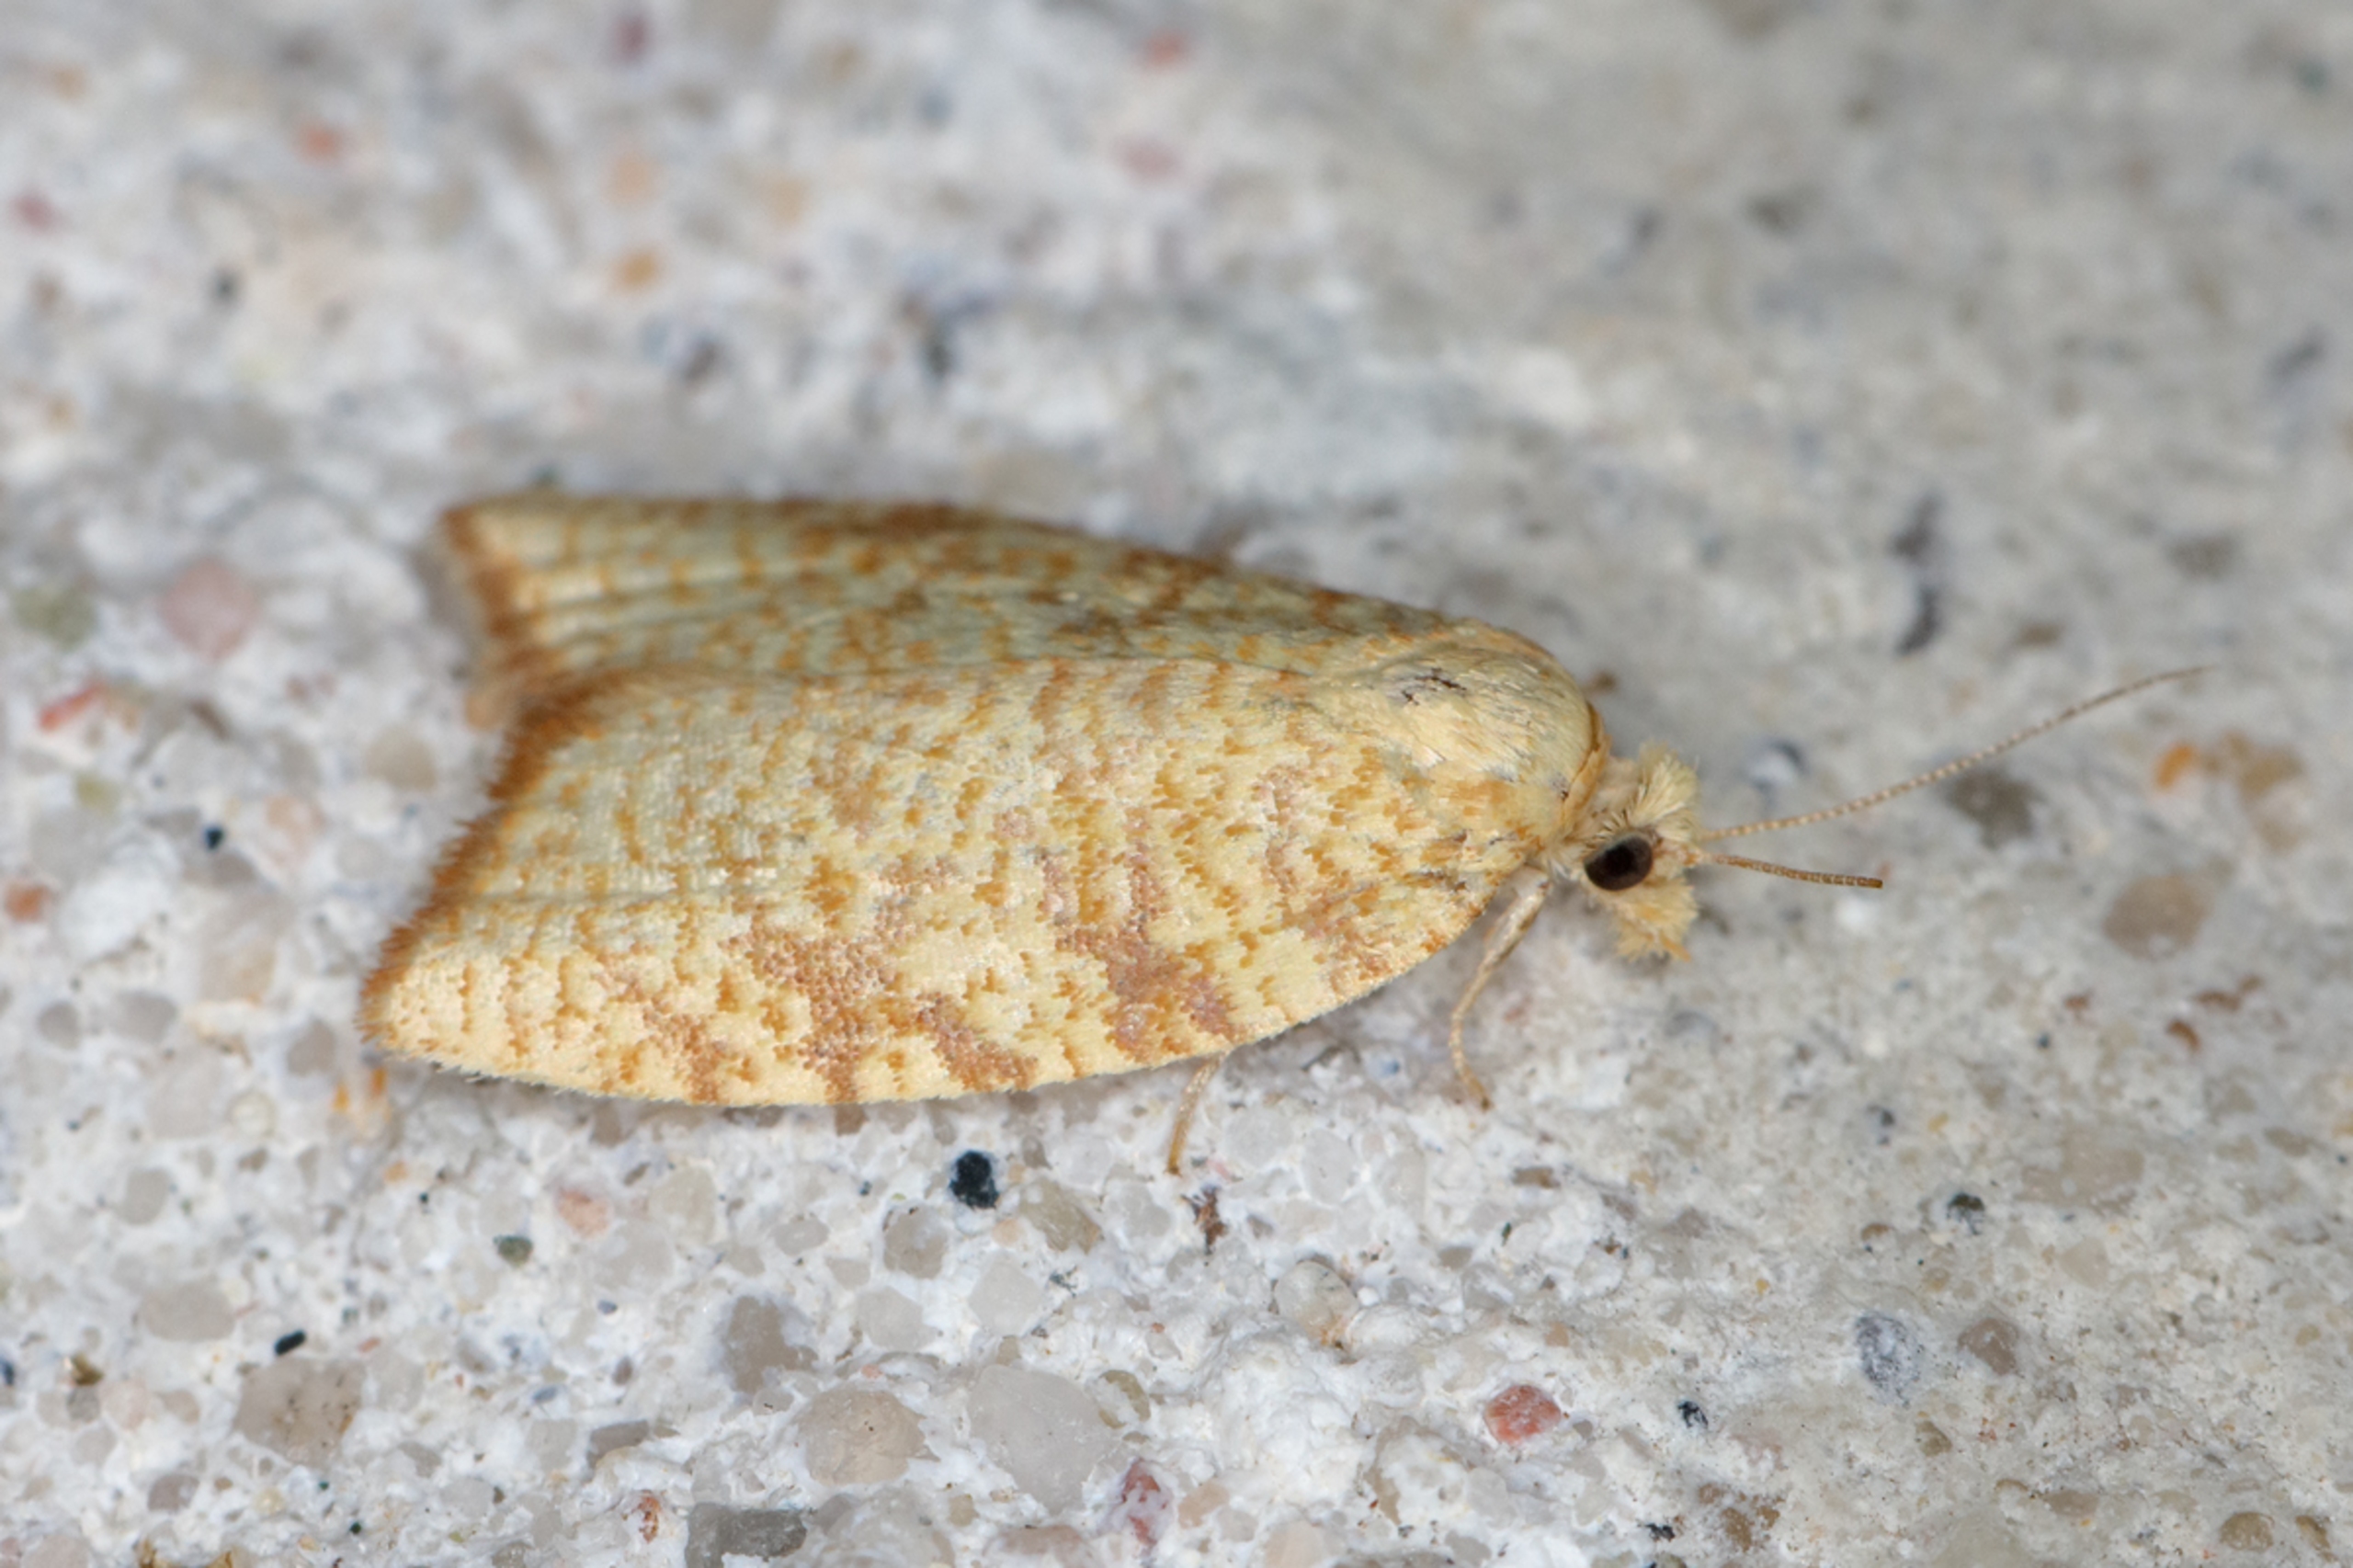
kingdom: Animalia
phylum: Arthropoda
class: Insecta
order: Lepidoptera
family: Tortricidae
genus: Aleimma
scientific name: Aleimma loeflingiana
